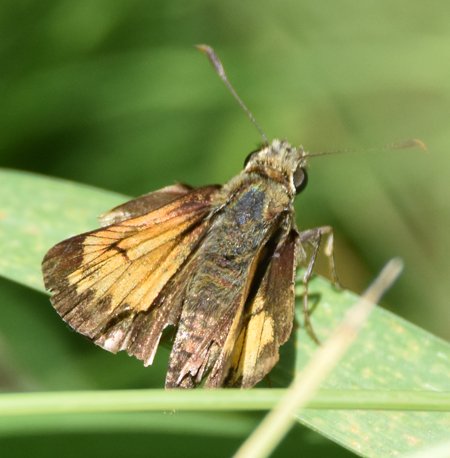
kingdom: Animalia
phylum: Arthropoda
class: Insecta
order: Lepidoptera
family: Hesperiidae
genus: Lon
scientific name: Lon hobomok
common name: Hobomok Skipper
